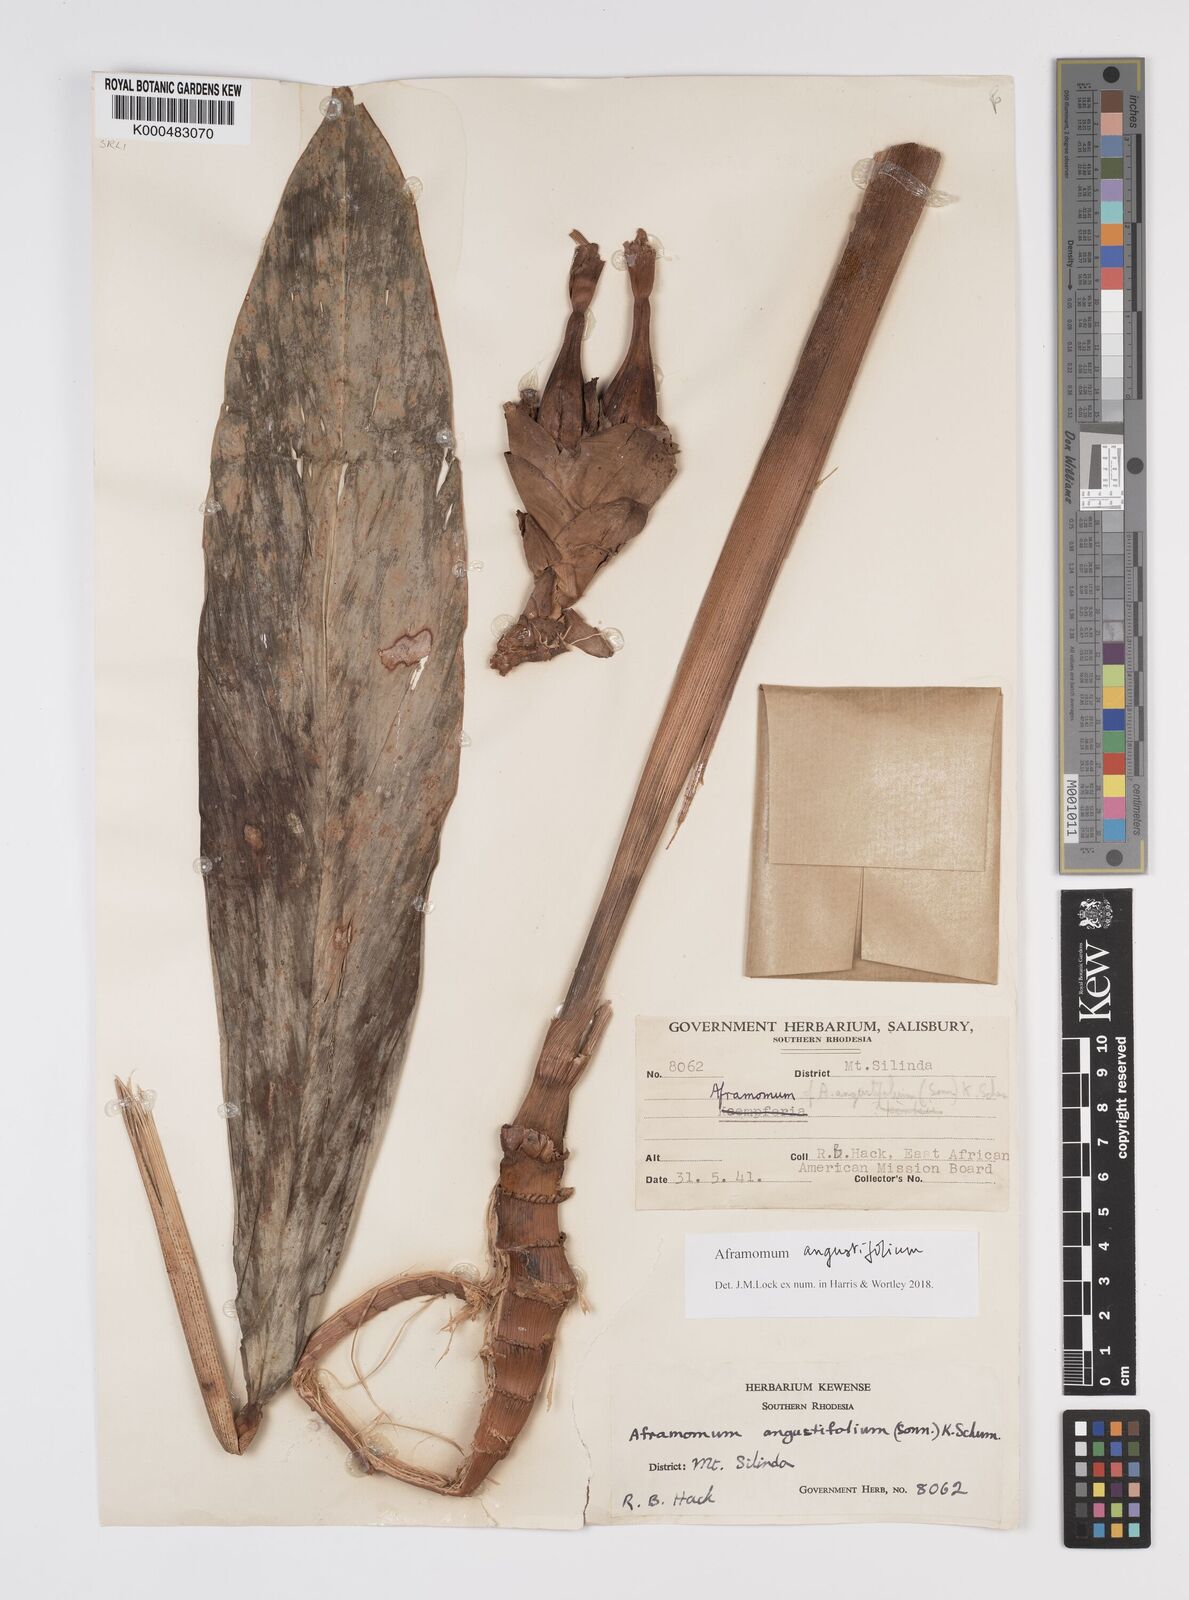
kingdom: Plantae
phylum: Tracheophyta
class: Liliopsida
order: Zingiberales
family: Zingiberaceae
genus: Aframomum
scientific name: Aframomum angustifolium
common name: Guinea grains
